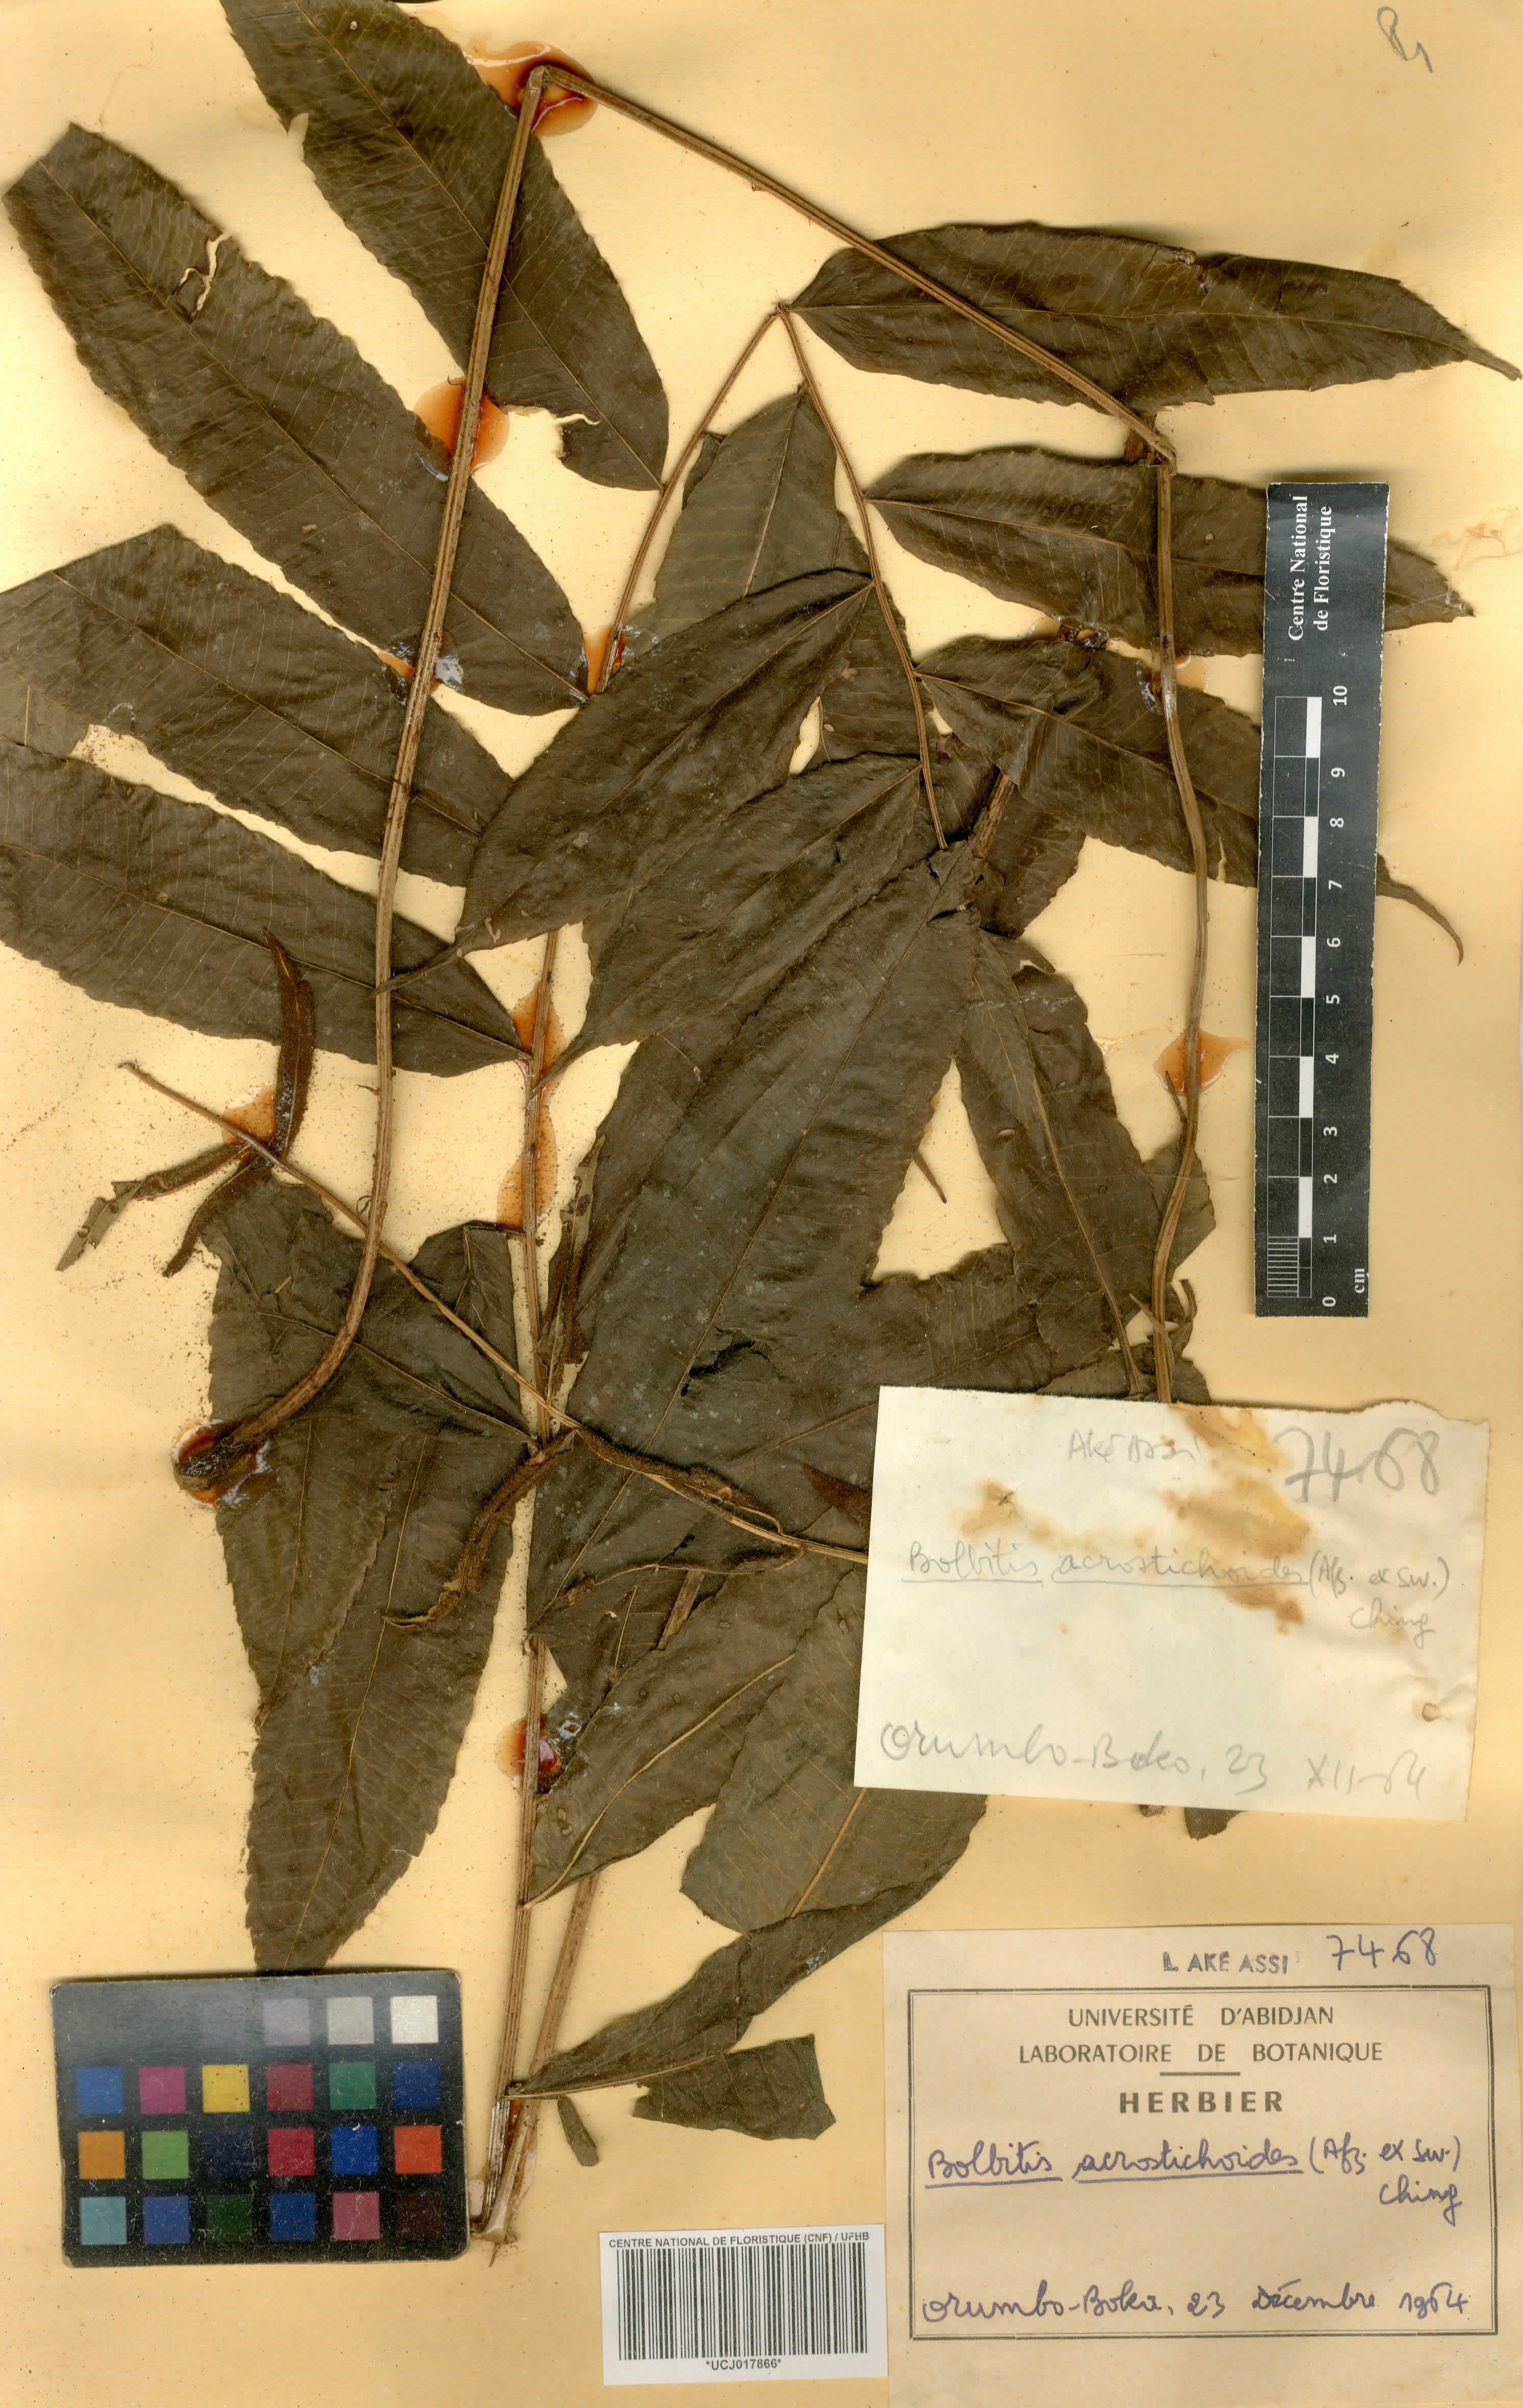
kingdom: Plantae
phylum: Tracheophyta
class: Polypodiopsida
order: Polypodiales
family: Dryopteridaceae
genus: Bolbitis
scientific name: Bolbitis acrostichoides
